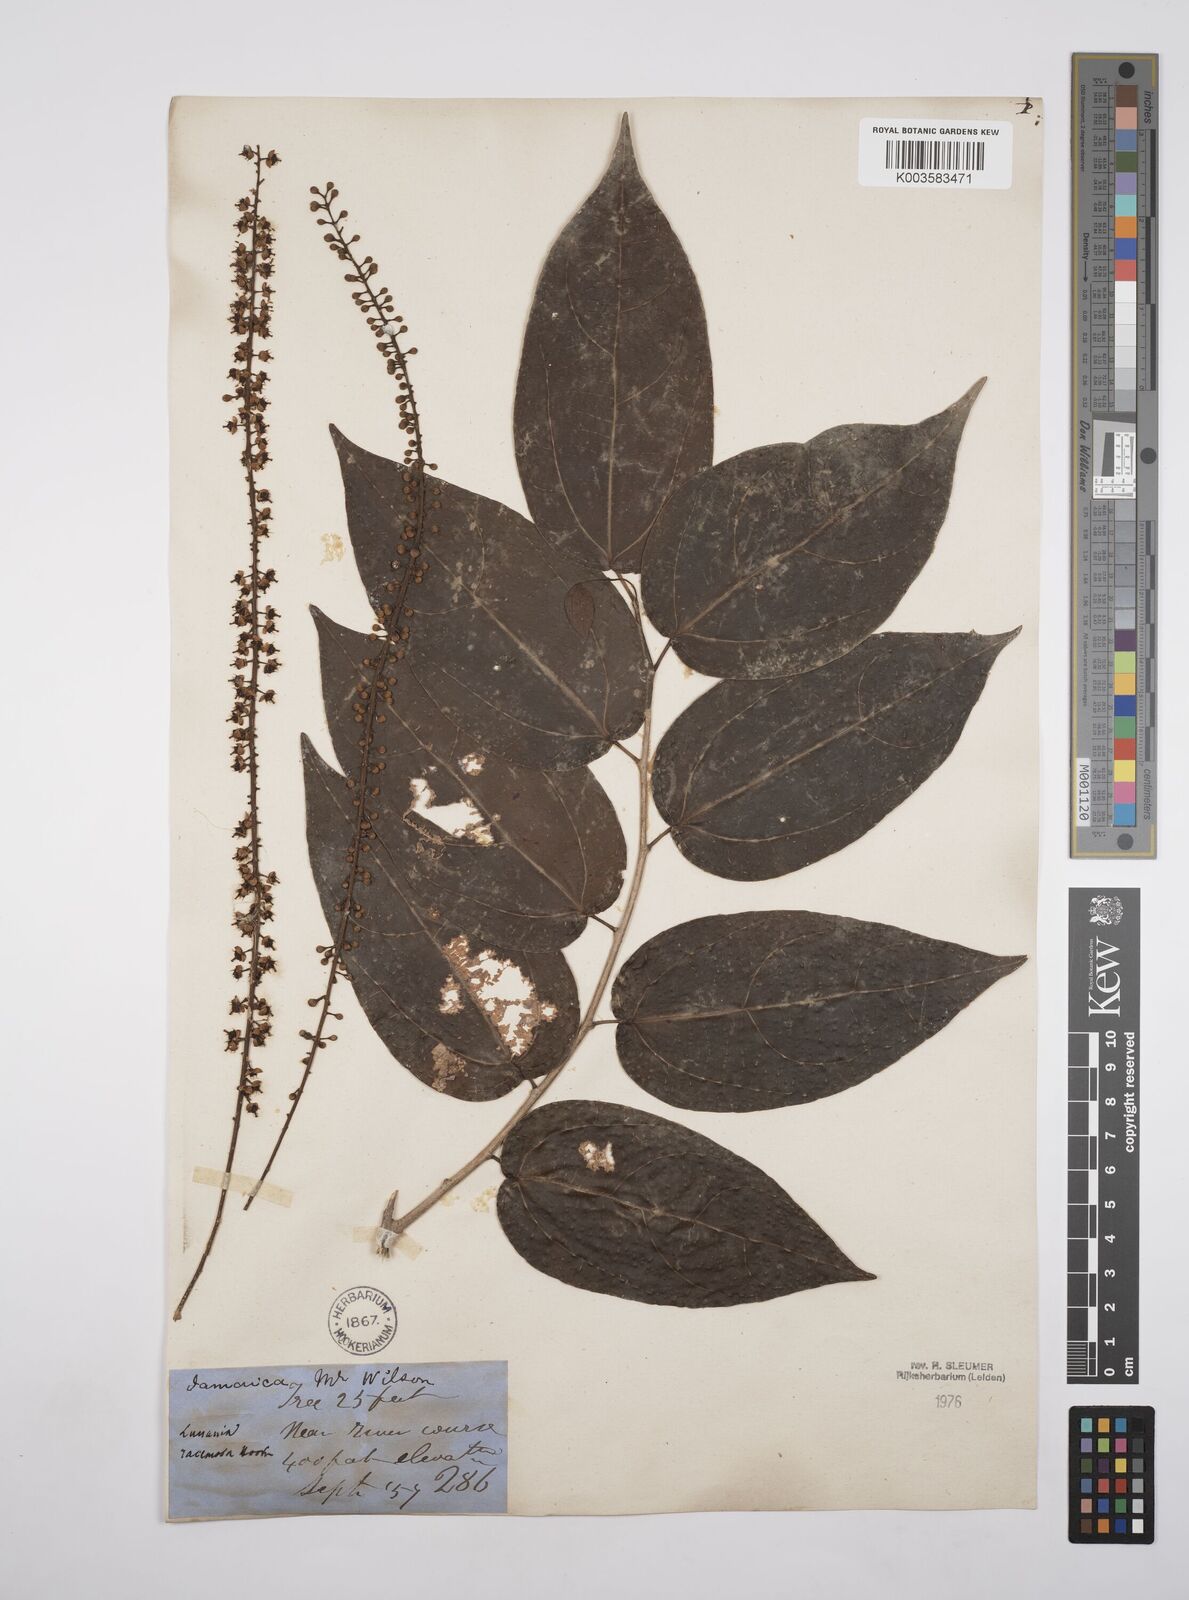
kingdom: Plantae
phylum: Tracheophyta
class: Magnoliopsida
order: Malpighiales
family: Salicaceae
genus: Lunania
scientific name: Lunania racemosa
